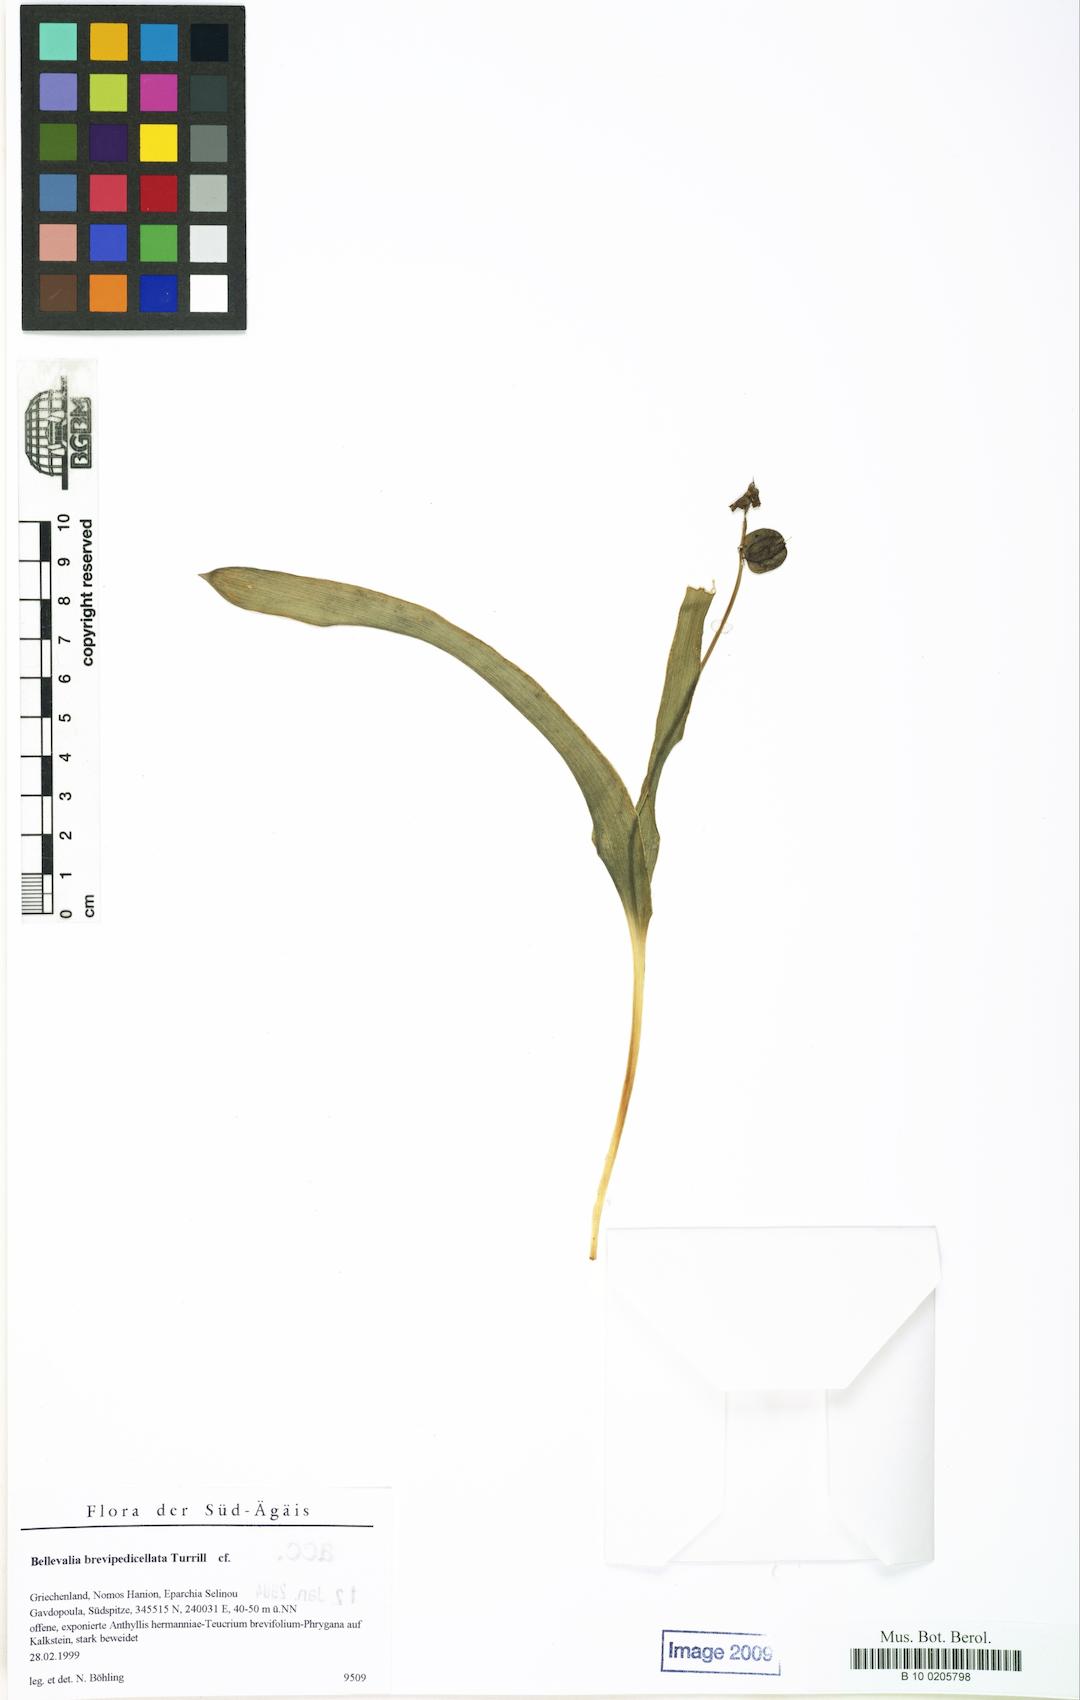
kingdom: Plantae
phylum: Tracheophyta
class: Liliopsida
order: Asparagales
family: Asparagaceae
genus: Bellevalia
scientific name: Bellevalia brevipedicellata
